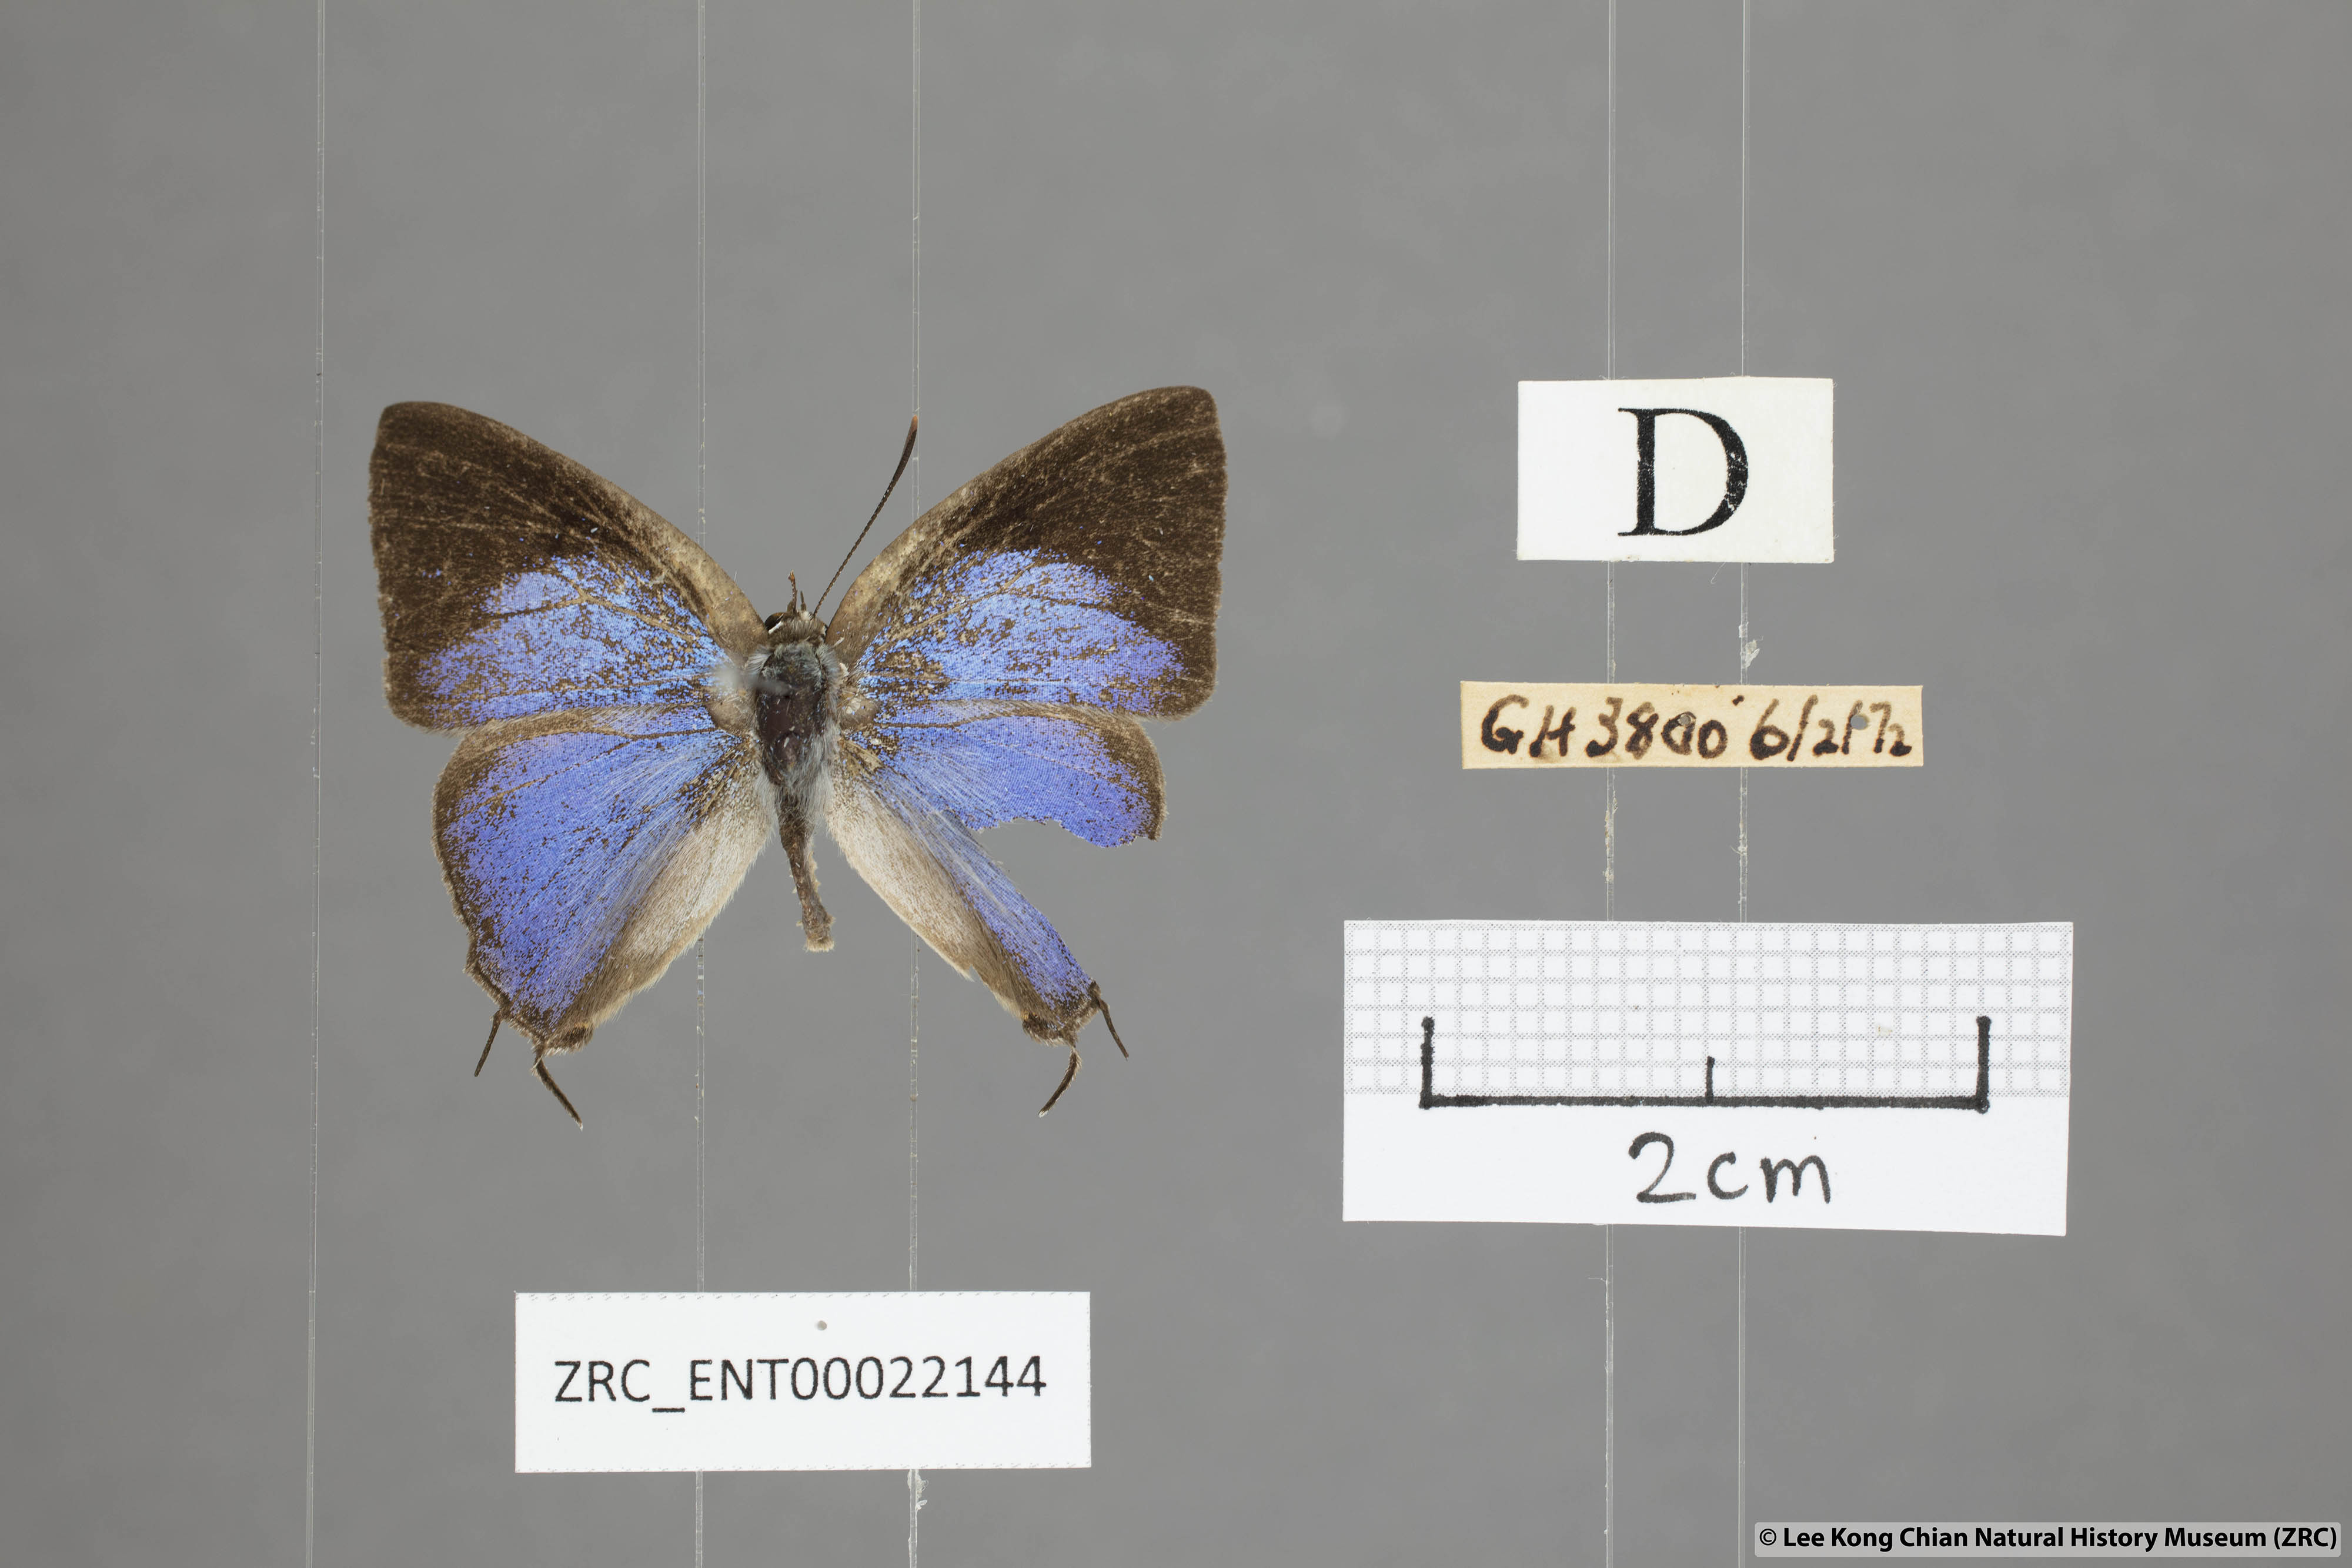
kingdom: Animalia
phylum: Arthropoda
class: Insecta
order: Lepidoptera
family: Lycaenidae
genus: Tajuria
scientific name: Tajuria albiplaga
